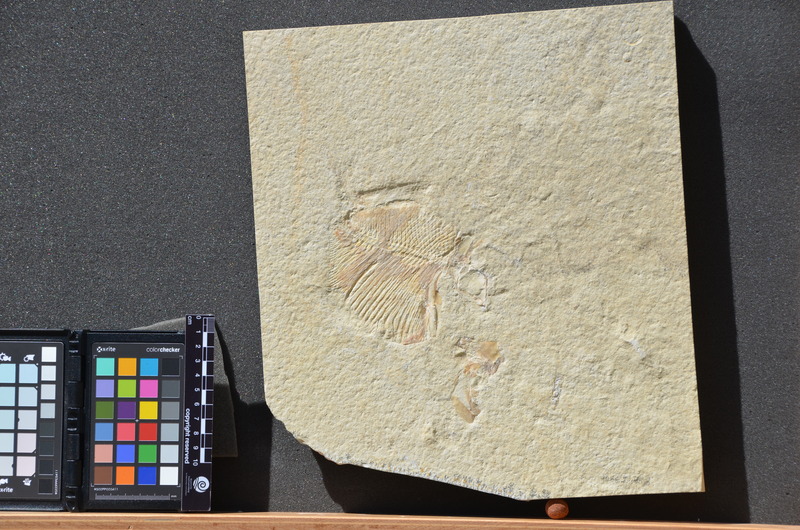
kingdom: Animalia
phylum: Chordata
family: Gyrodontidae
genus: Gyrodus
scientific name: Gyrodus hexagonus
